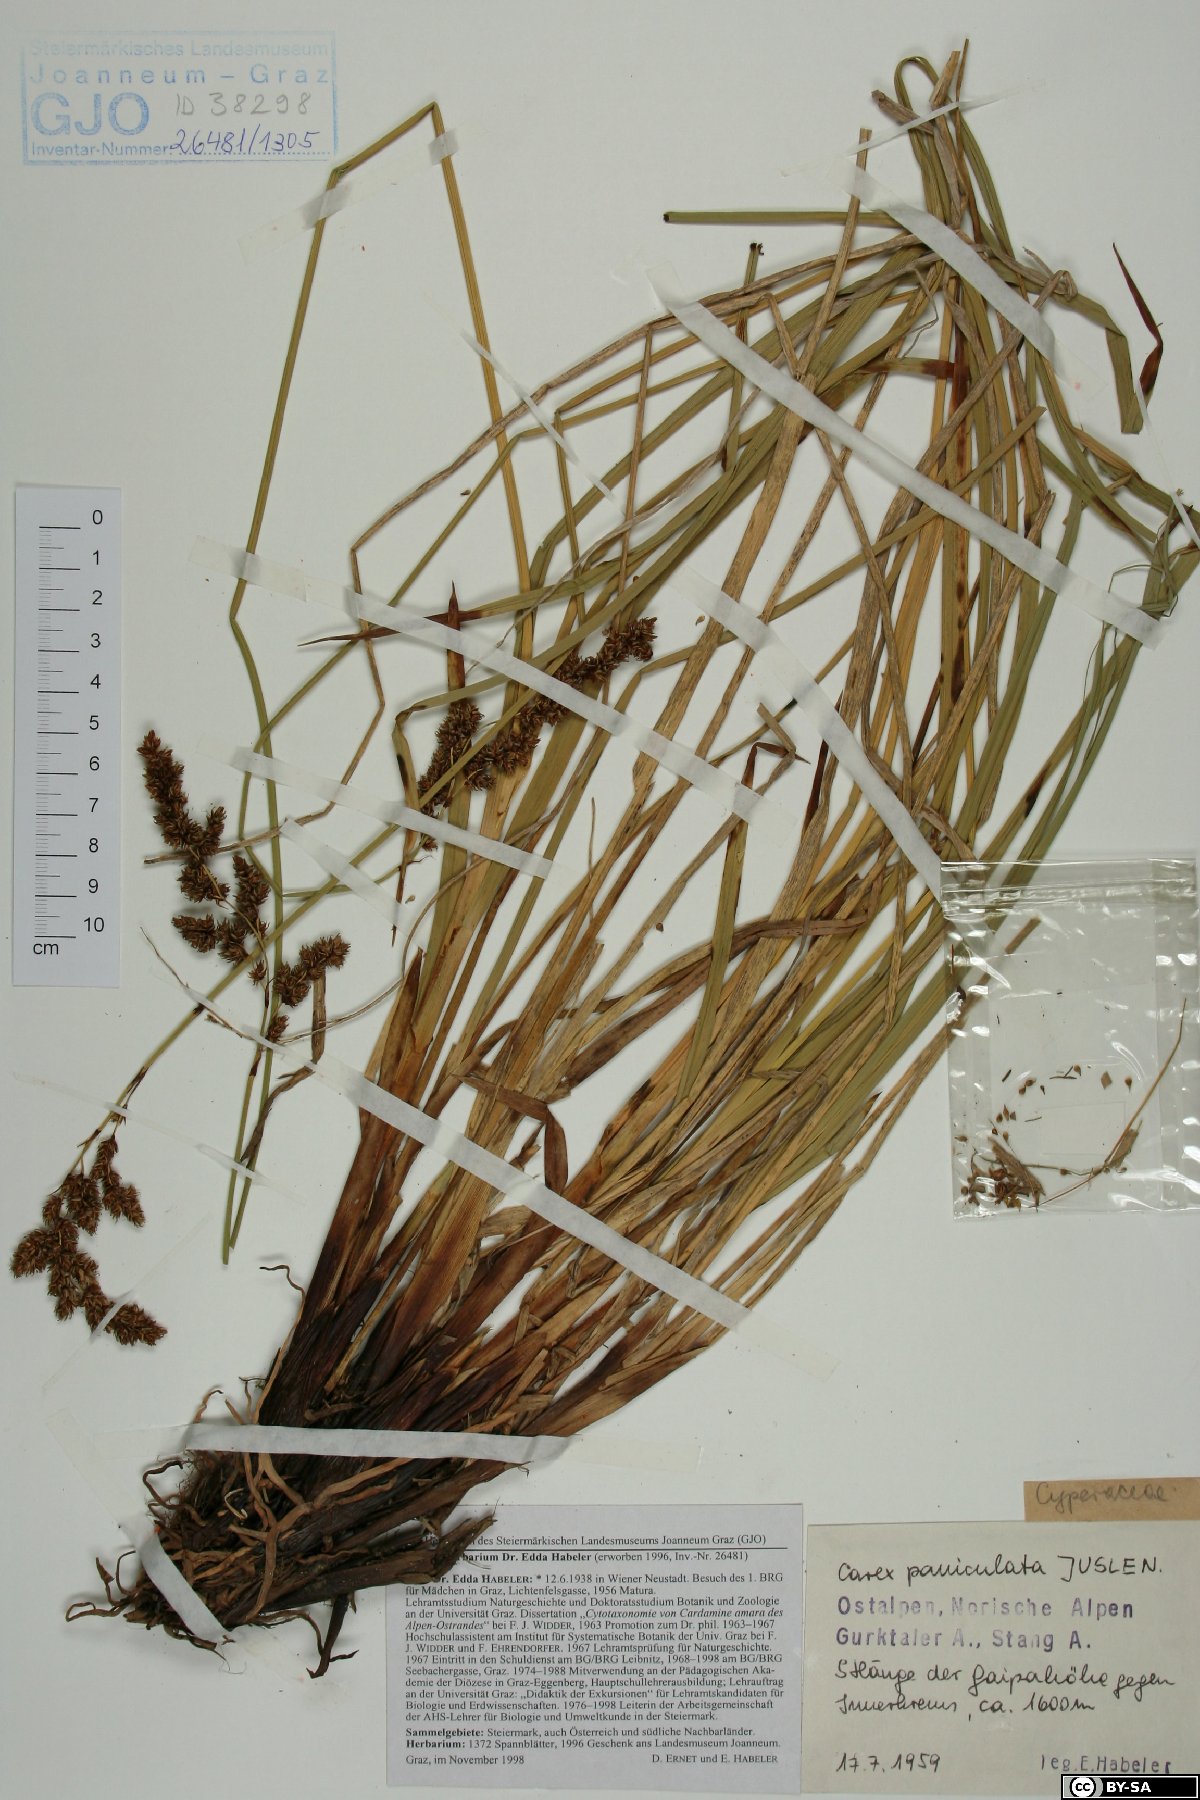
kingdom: Plantae
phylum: Tracheophyta
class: Liliopsida
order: Poales
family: Cyperaceae
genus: Carex
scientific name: Carex paniculata
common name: Greater tussock-sedge
